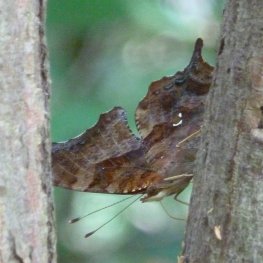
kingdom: Animalia
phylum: Arthropoda
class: Insecta
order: Lepidoptera
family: Nymphalidae
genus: Polygonia
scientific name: Polygonia interrogationis
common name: Question Mark
